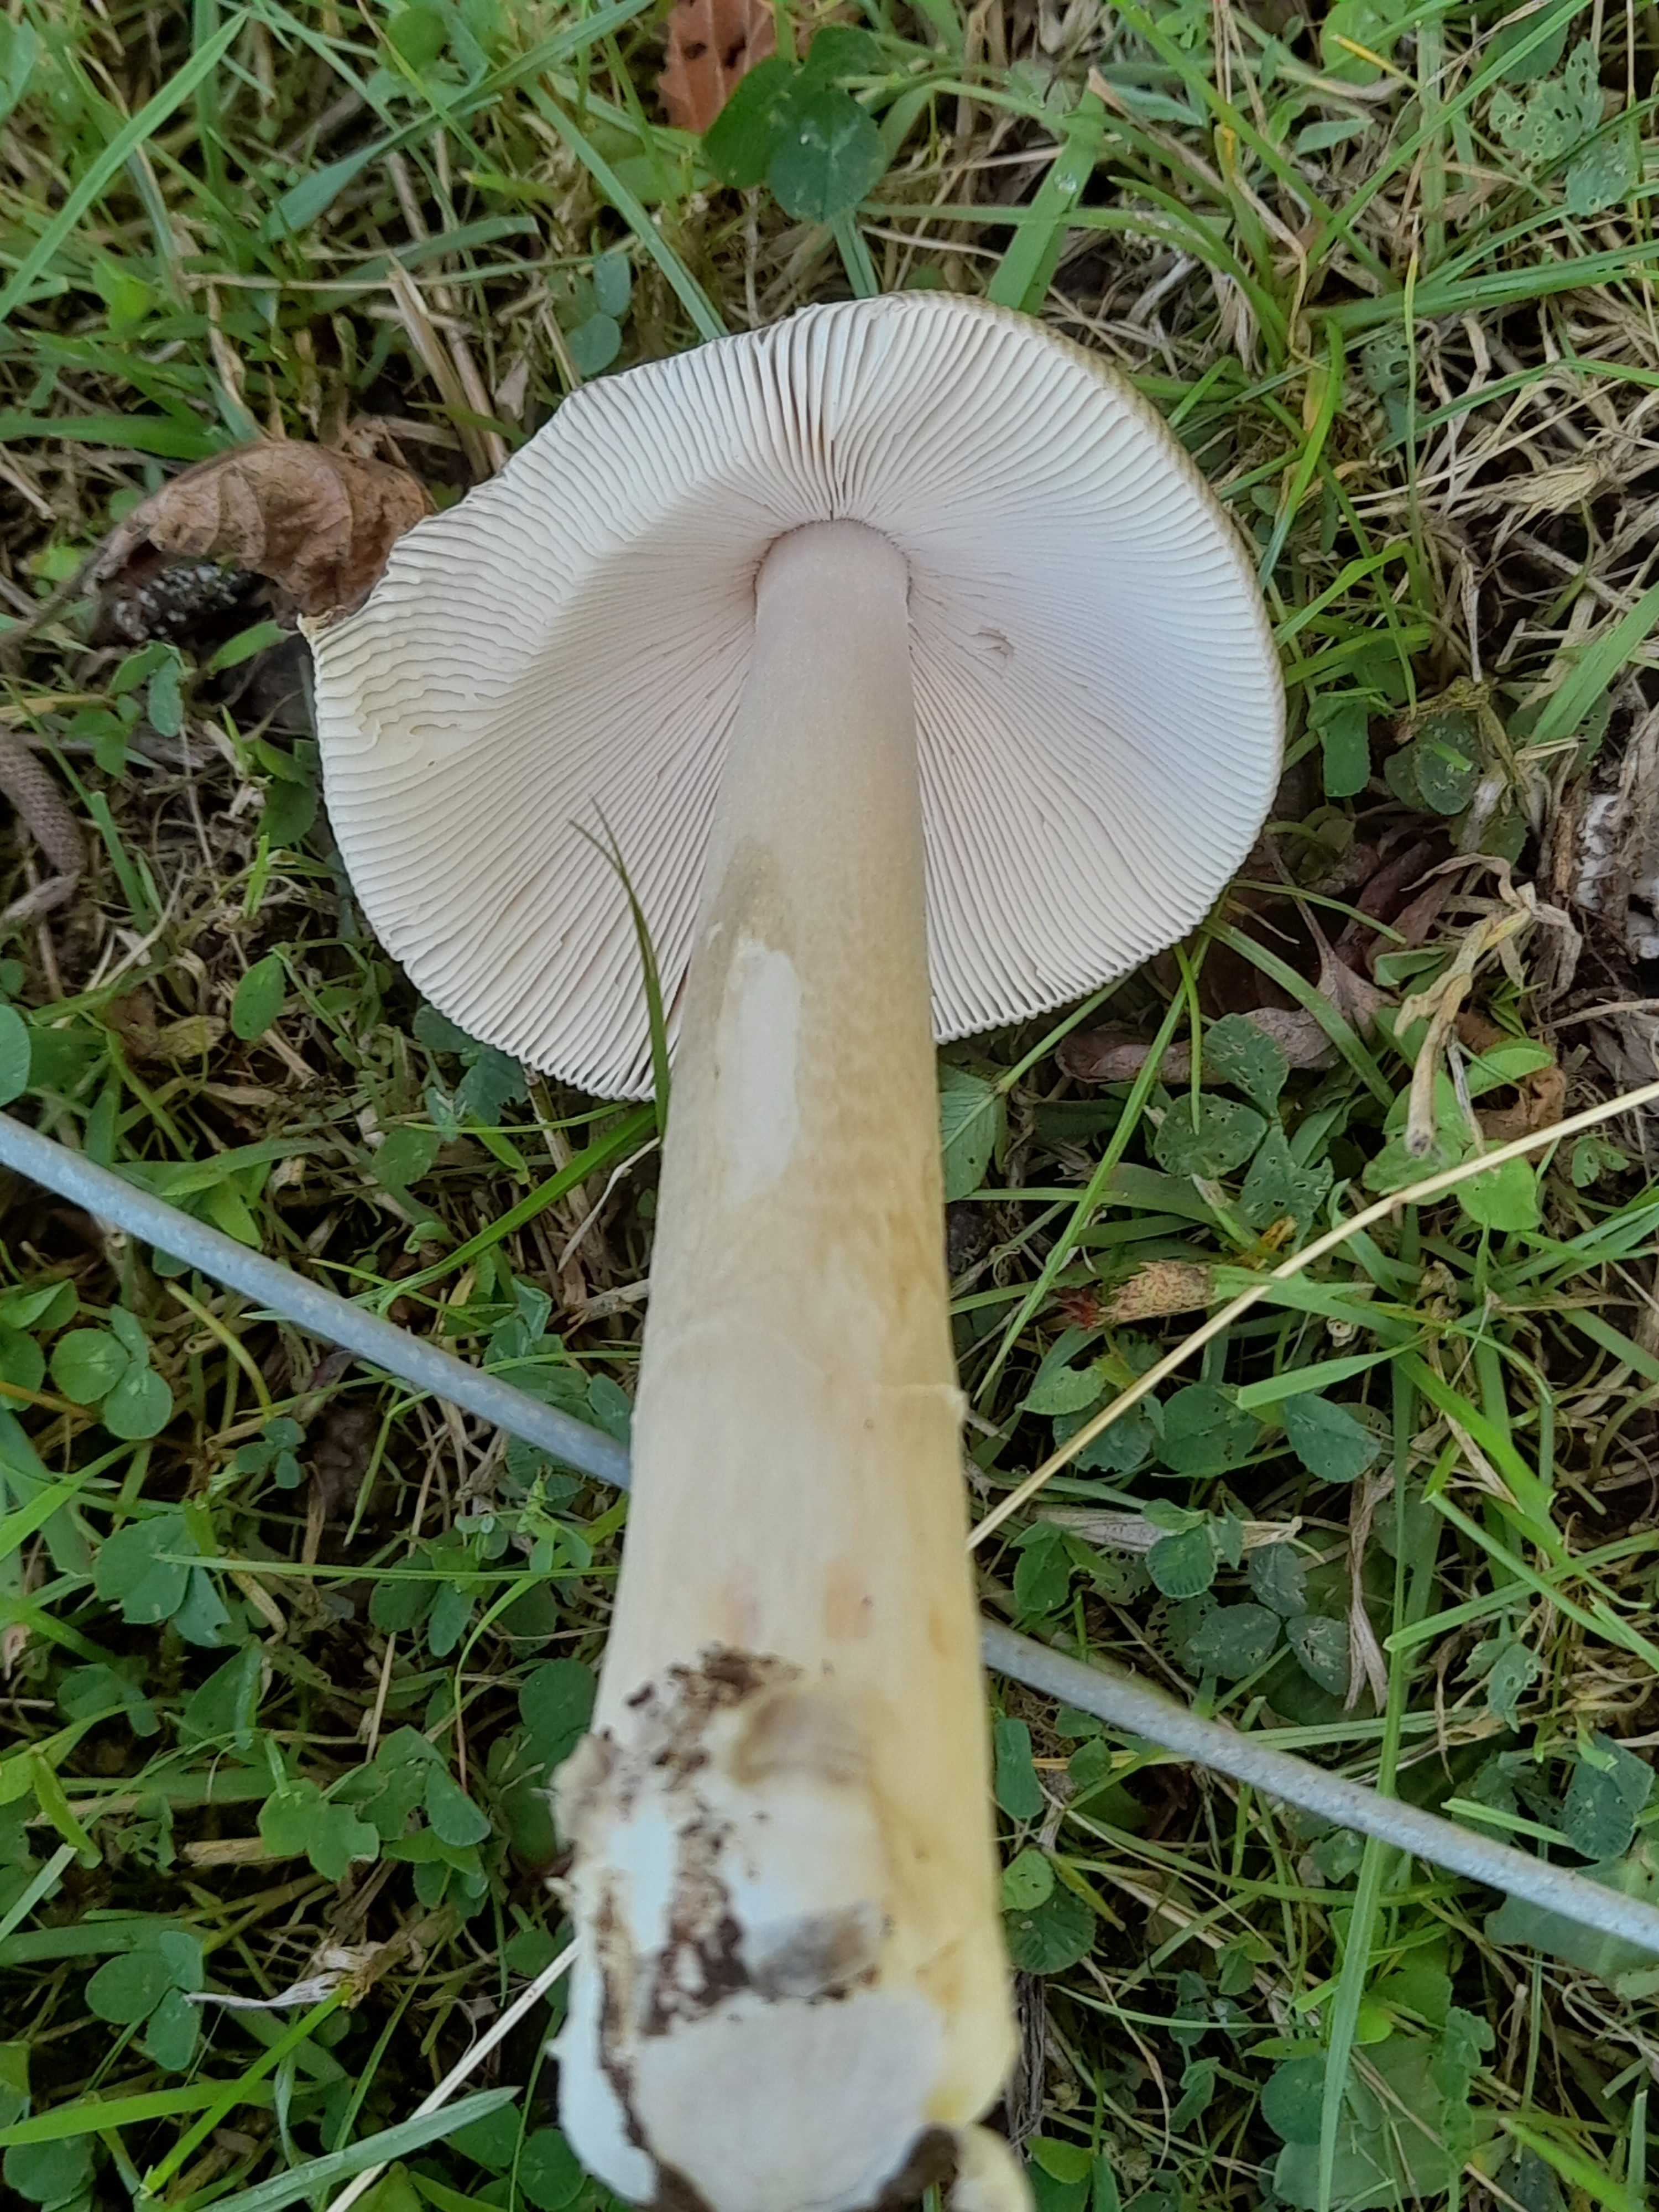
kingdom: Fungi
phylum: Basidiomycota
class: Agaricomycetes
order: Agaricales
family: Amanitaceae
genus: Amanita
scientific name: Amanita vaginata
